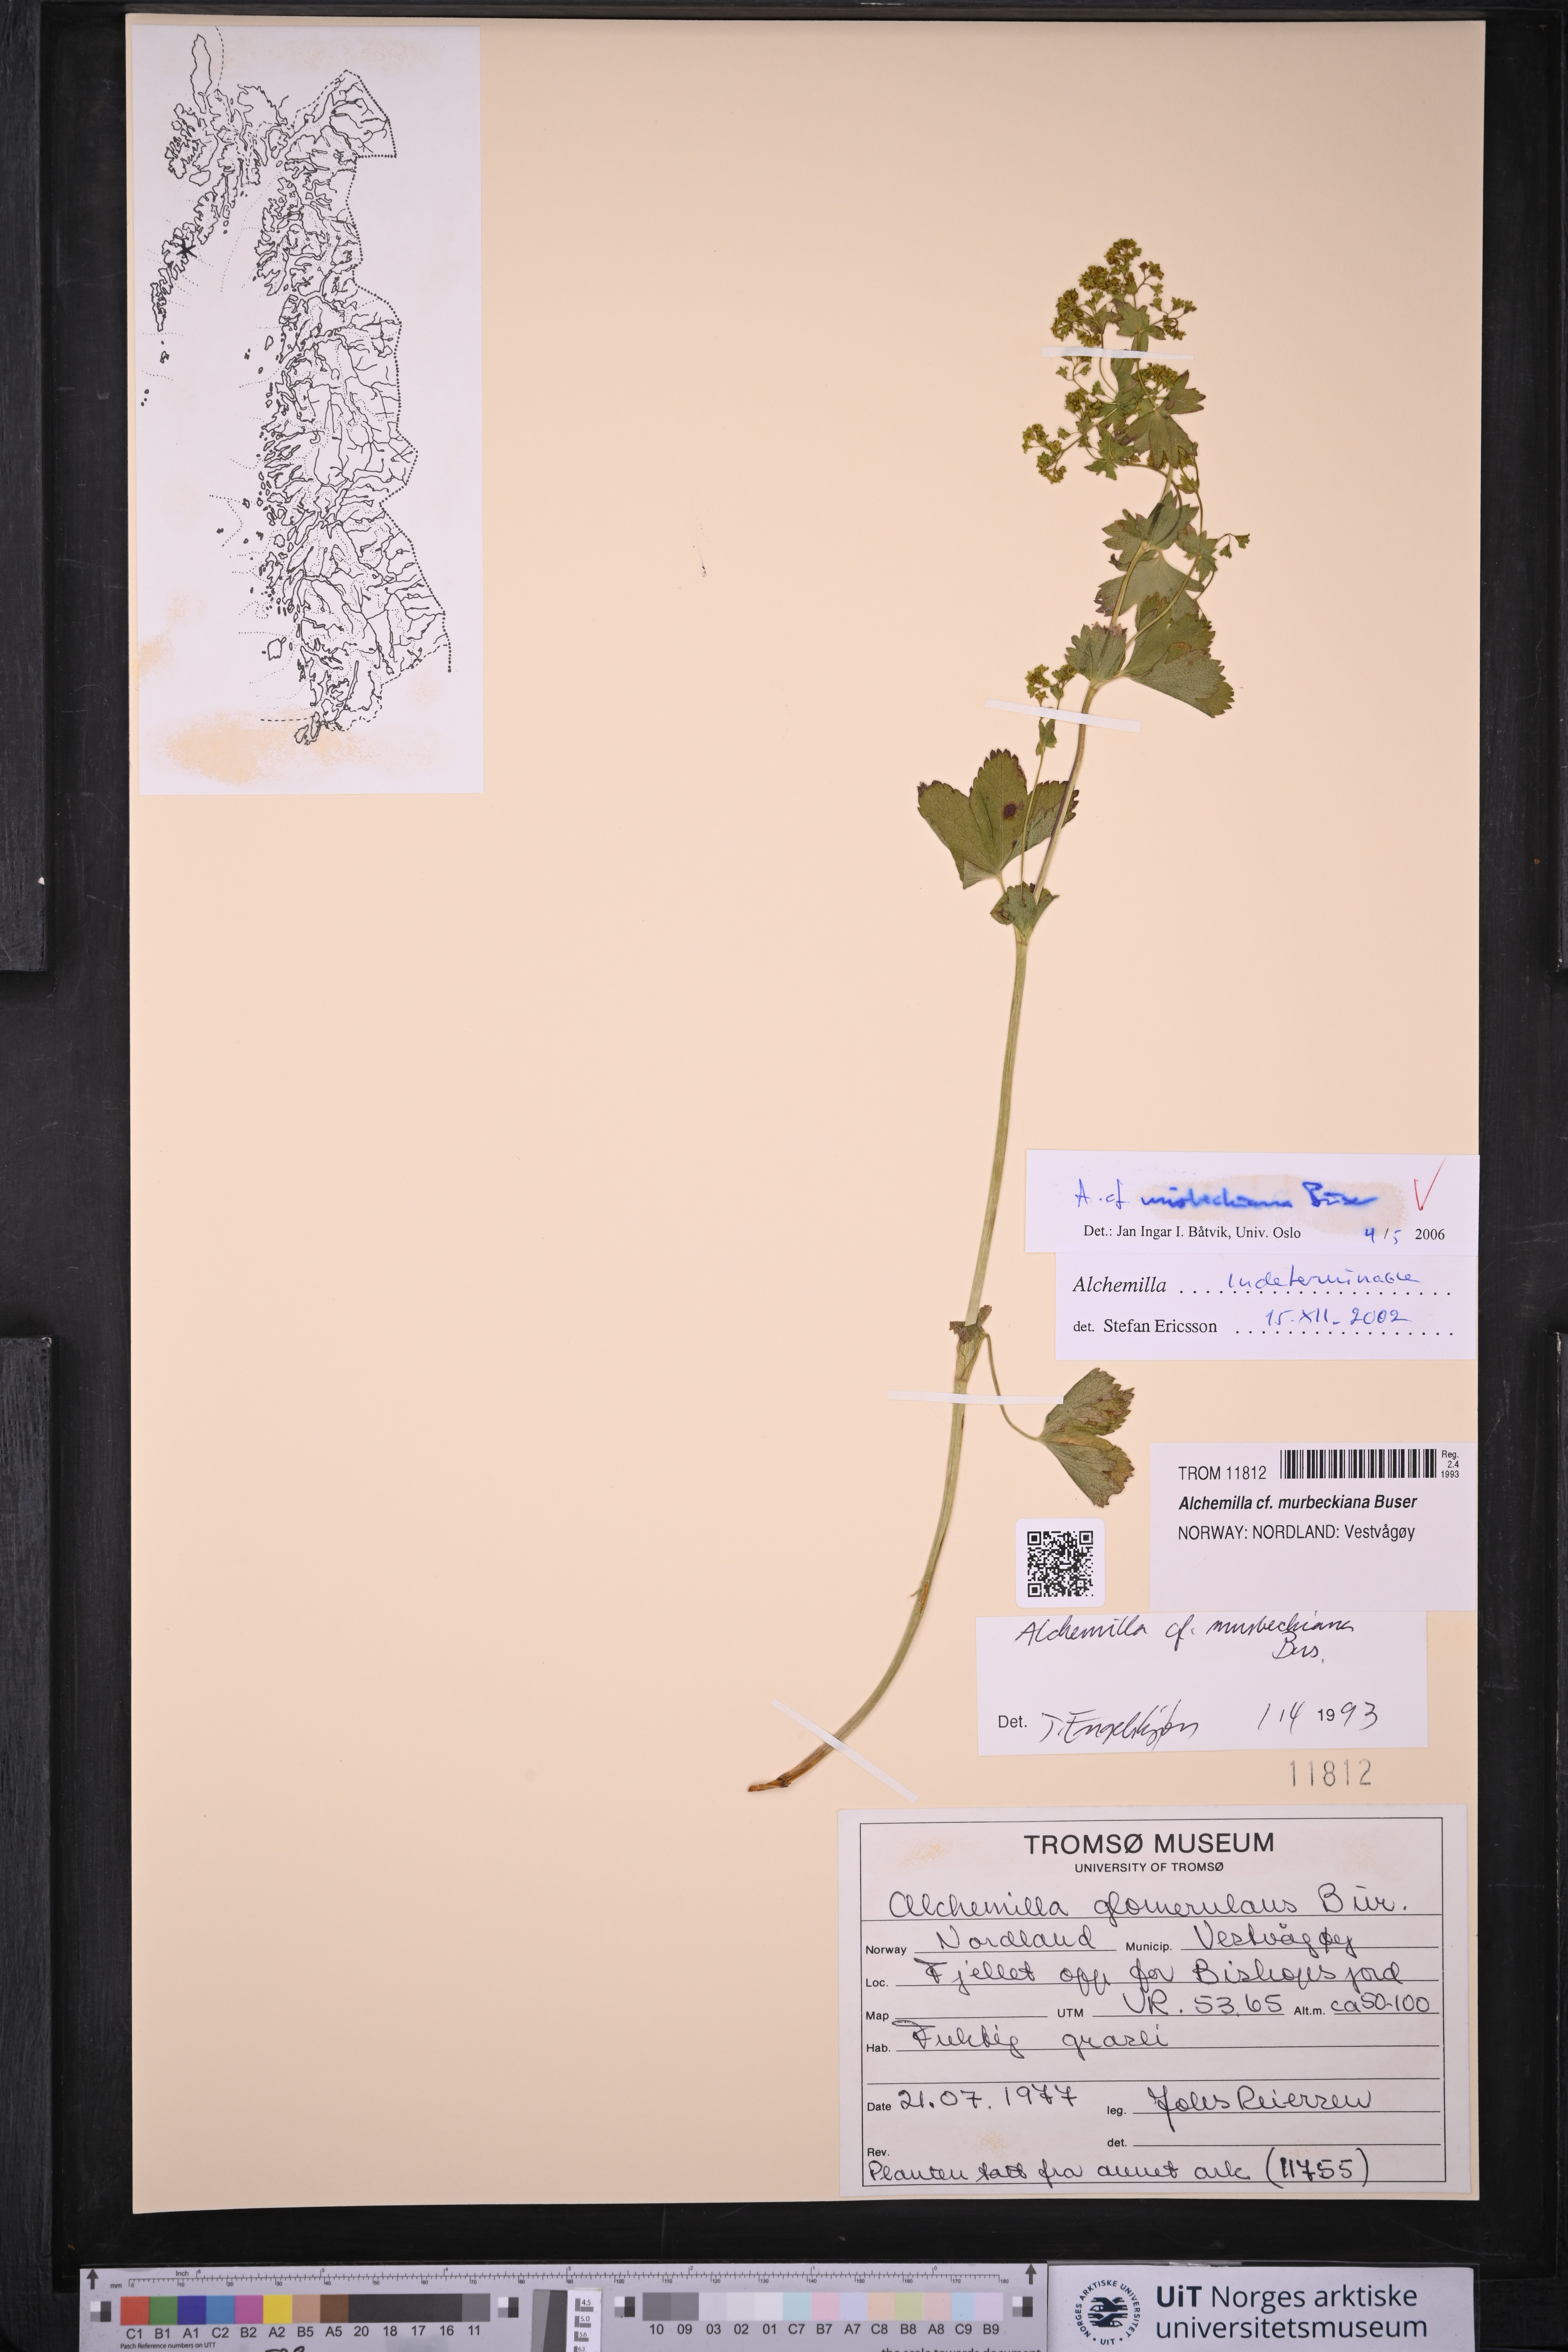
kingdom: Plantae
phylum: Tracheophyta
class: Magnoliopsida
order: Rosales
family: Rosaceae
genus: Alchemilla
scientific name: Alchemilla murbeckiana
